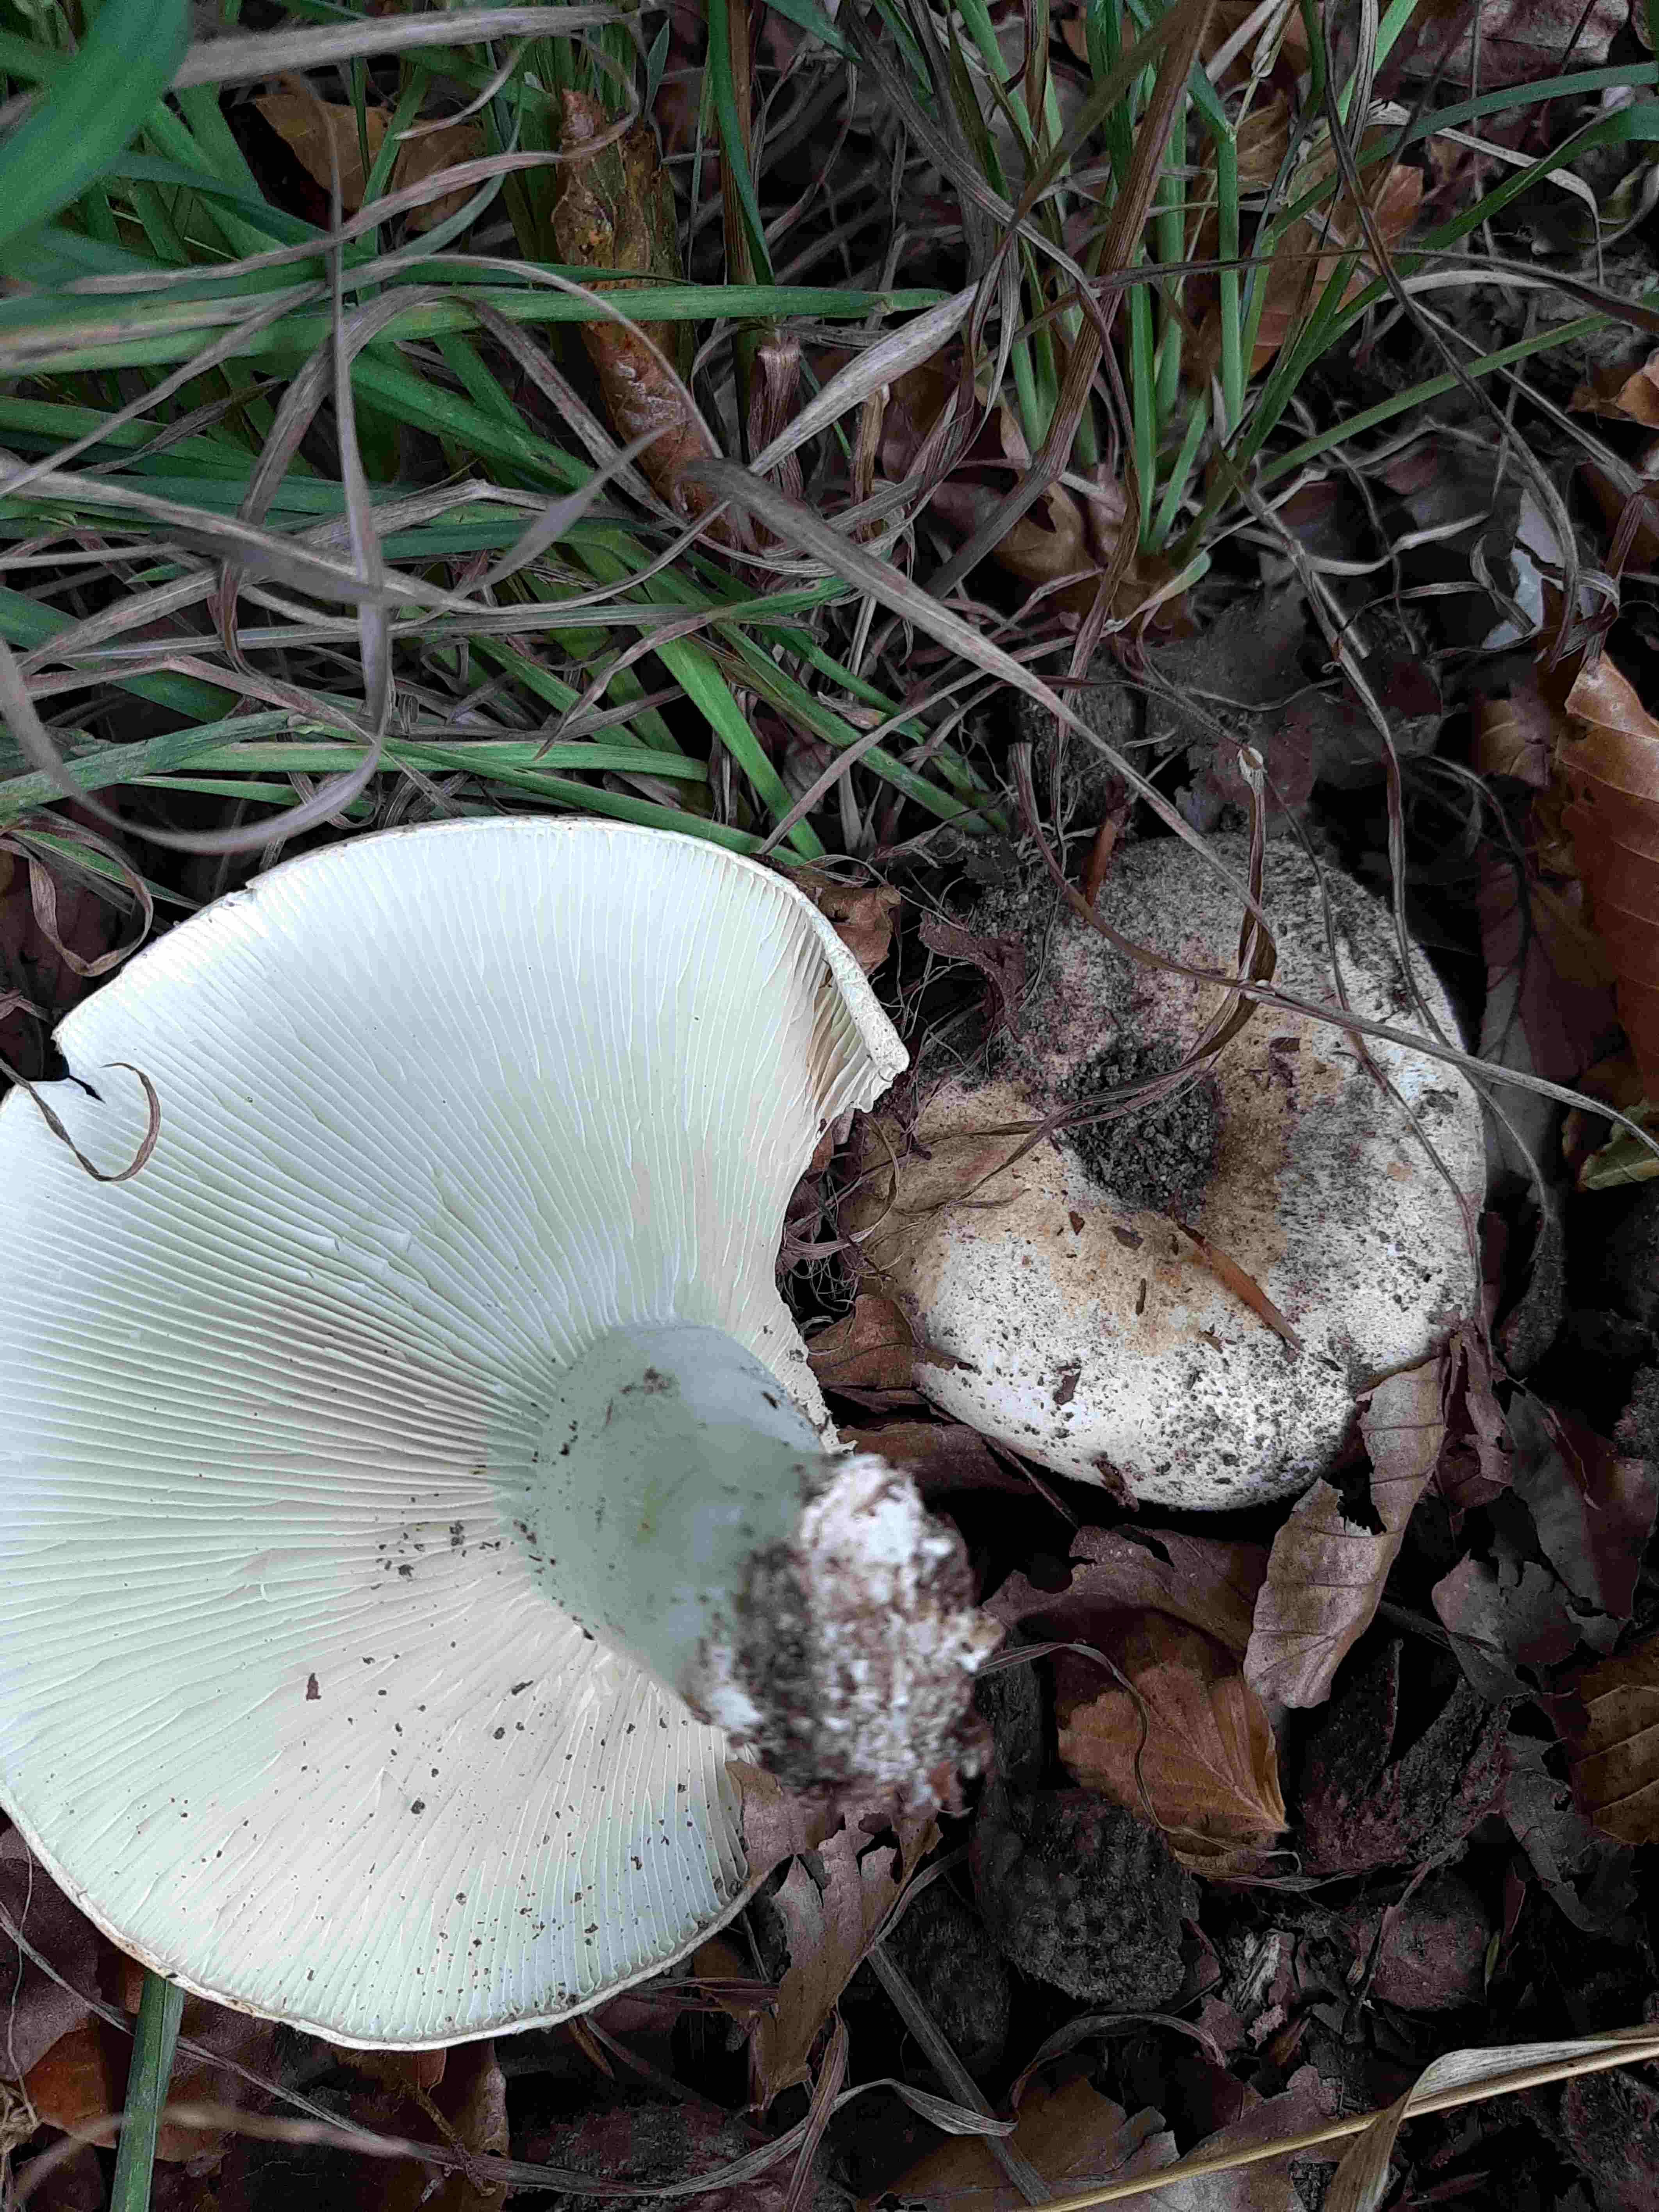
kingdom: Fungi
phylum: Basidiomycota
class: Agaricomycetes
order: Russulales
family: Russulaceae
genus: Russula
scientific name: Russula delica
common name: almindelig tragt-skørhat
